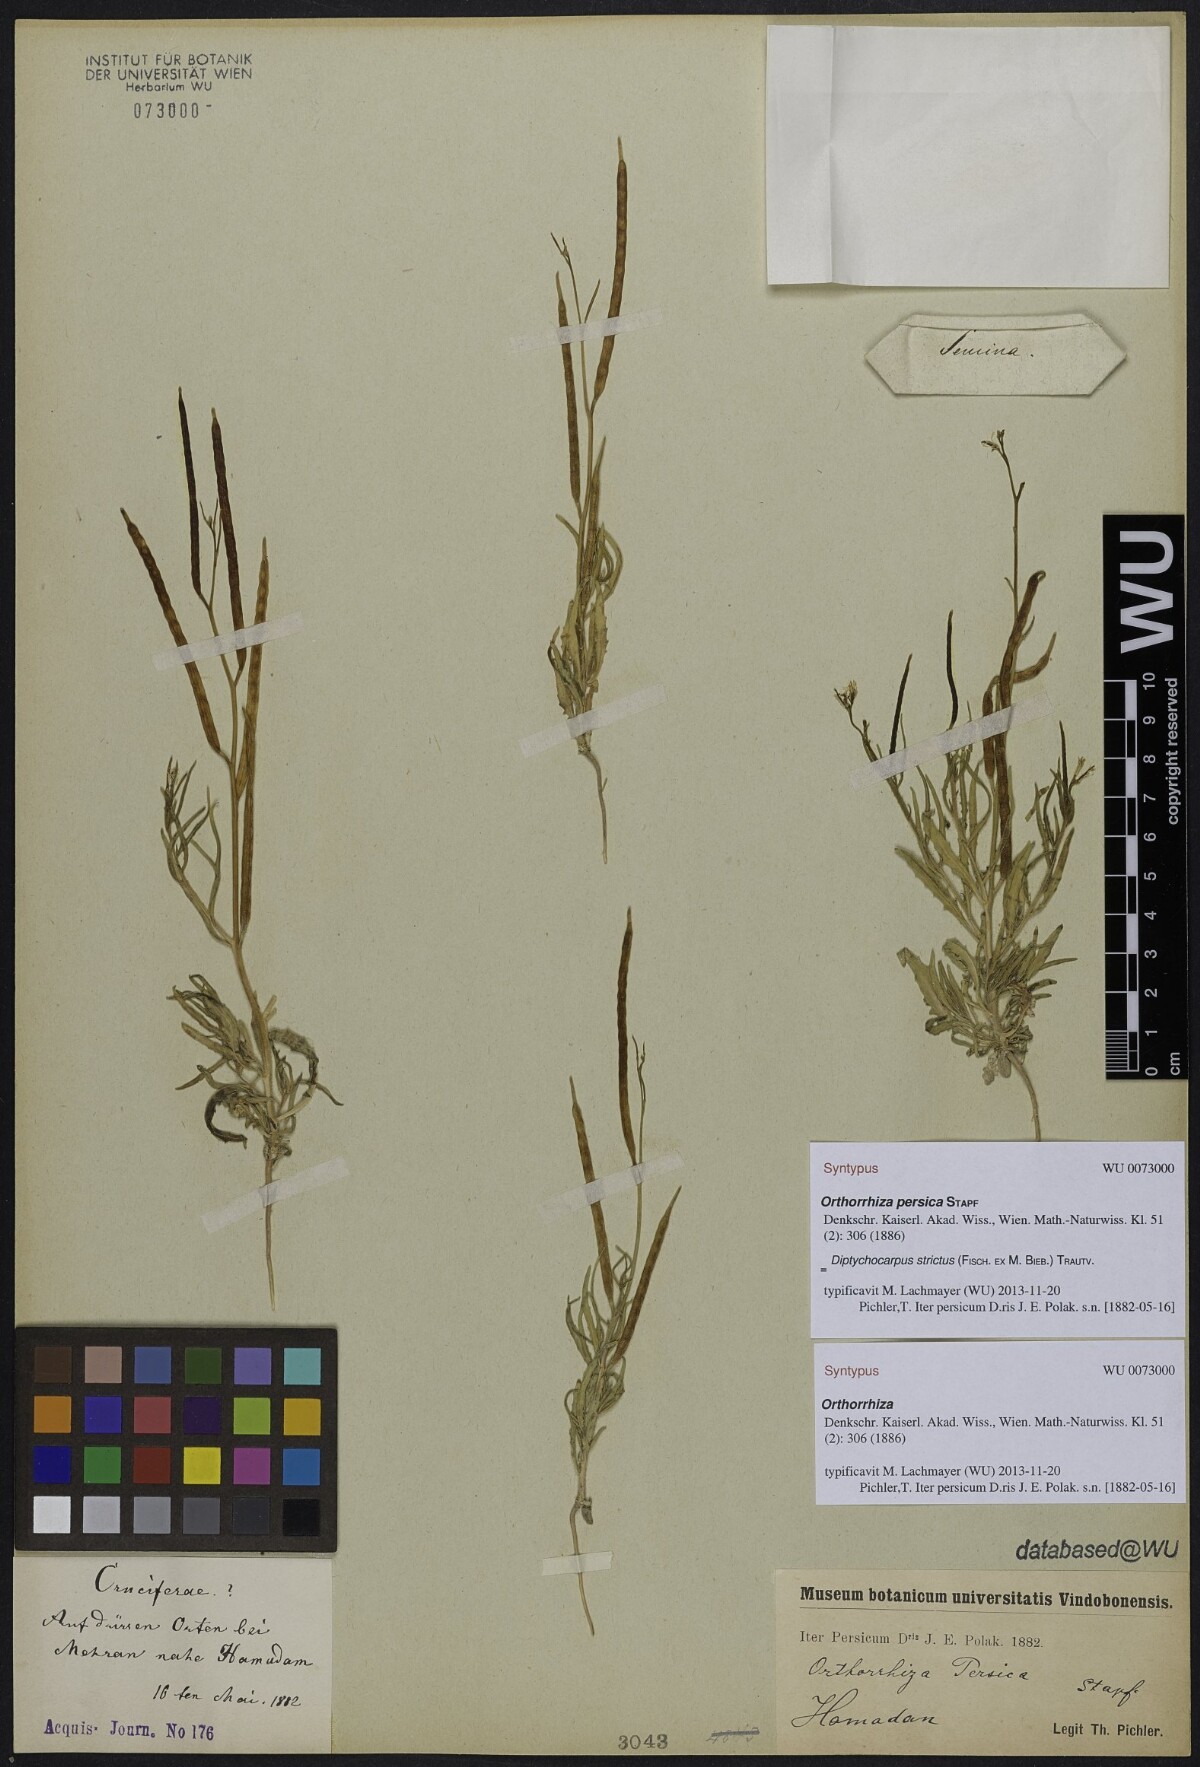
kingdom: Plantae
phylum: Tracheophyta
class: Magnoliopsida
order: Brassicales
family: Brassicaceae
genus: Diptychocarpus
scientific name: Diptychocarpus strictus
